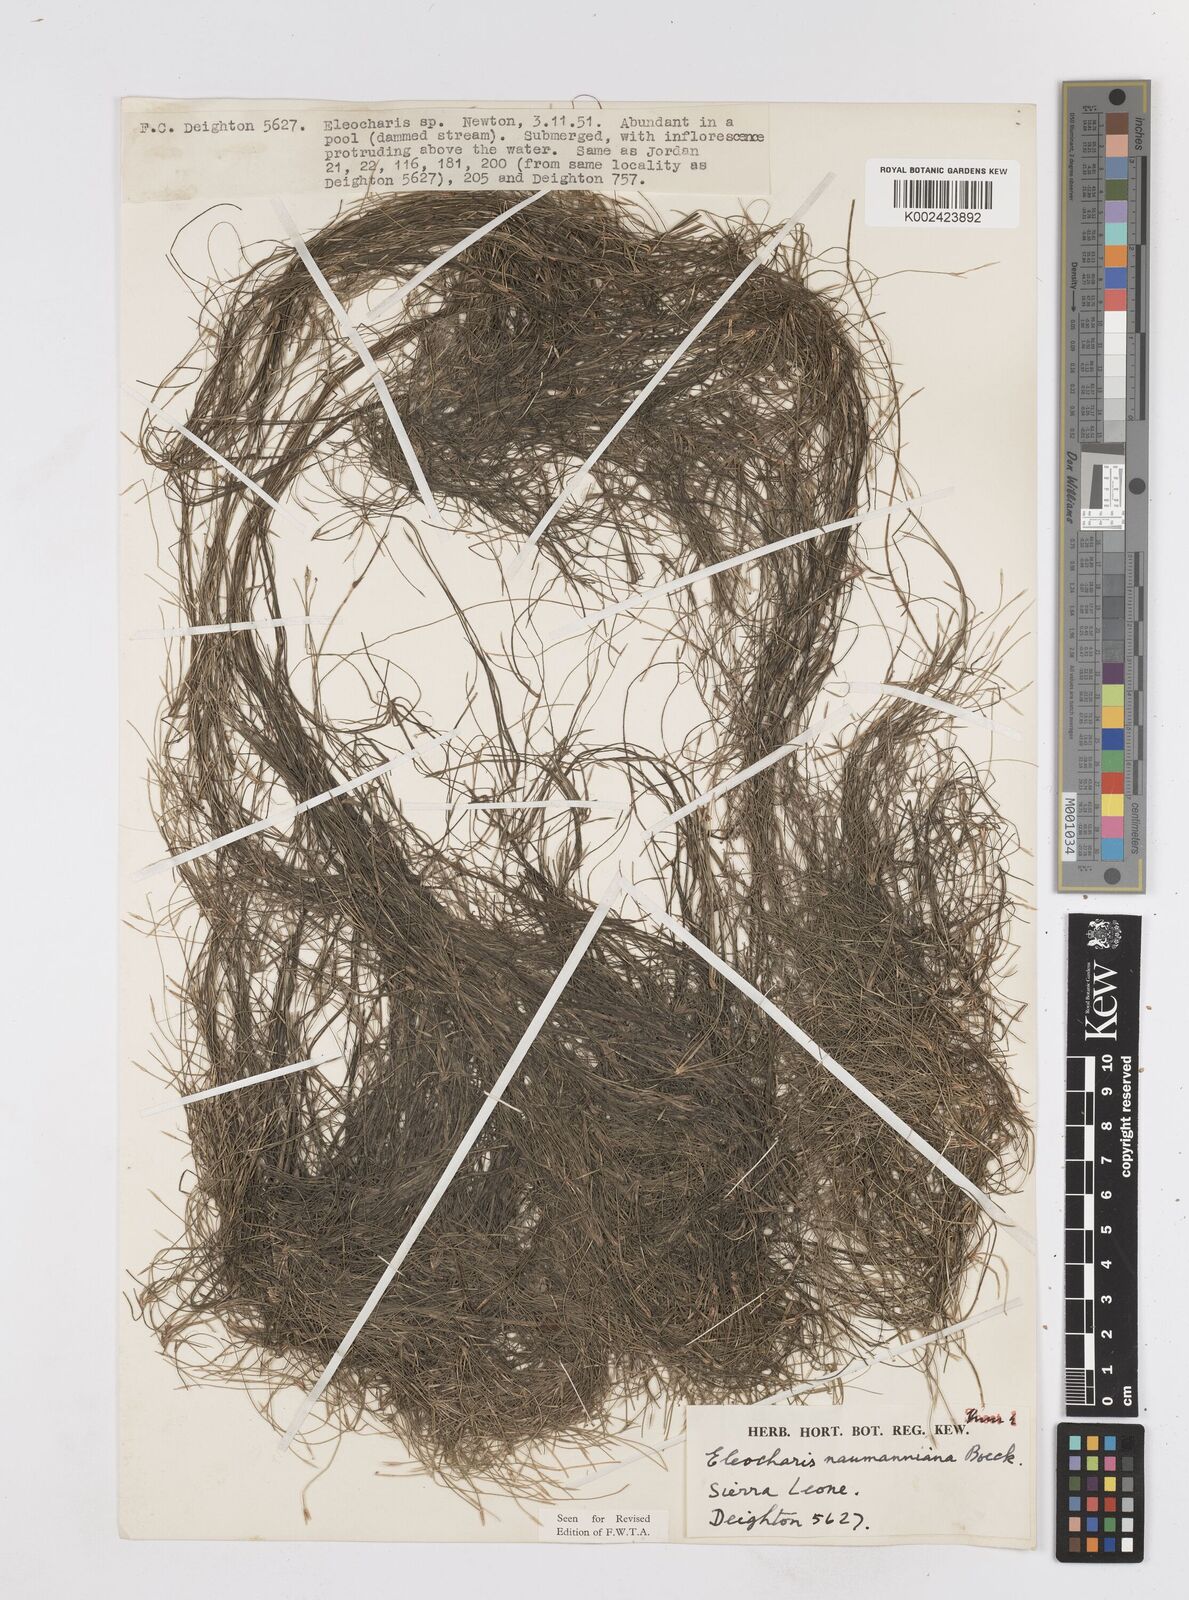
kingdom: Plantae
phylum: Tracheophyta
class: Liliopsida
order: Poales
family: Cyperaceae
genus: Eleocharis
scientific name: Eleocharis naumanniana
